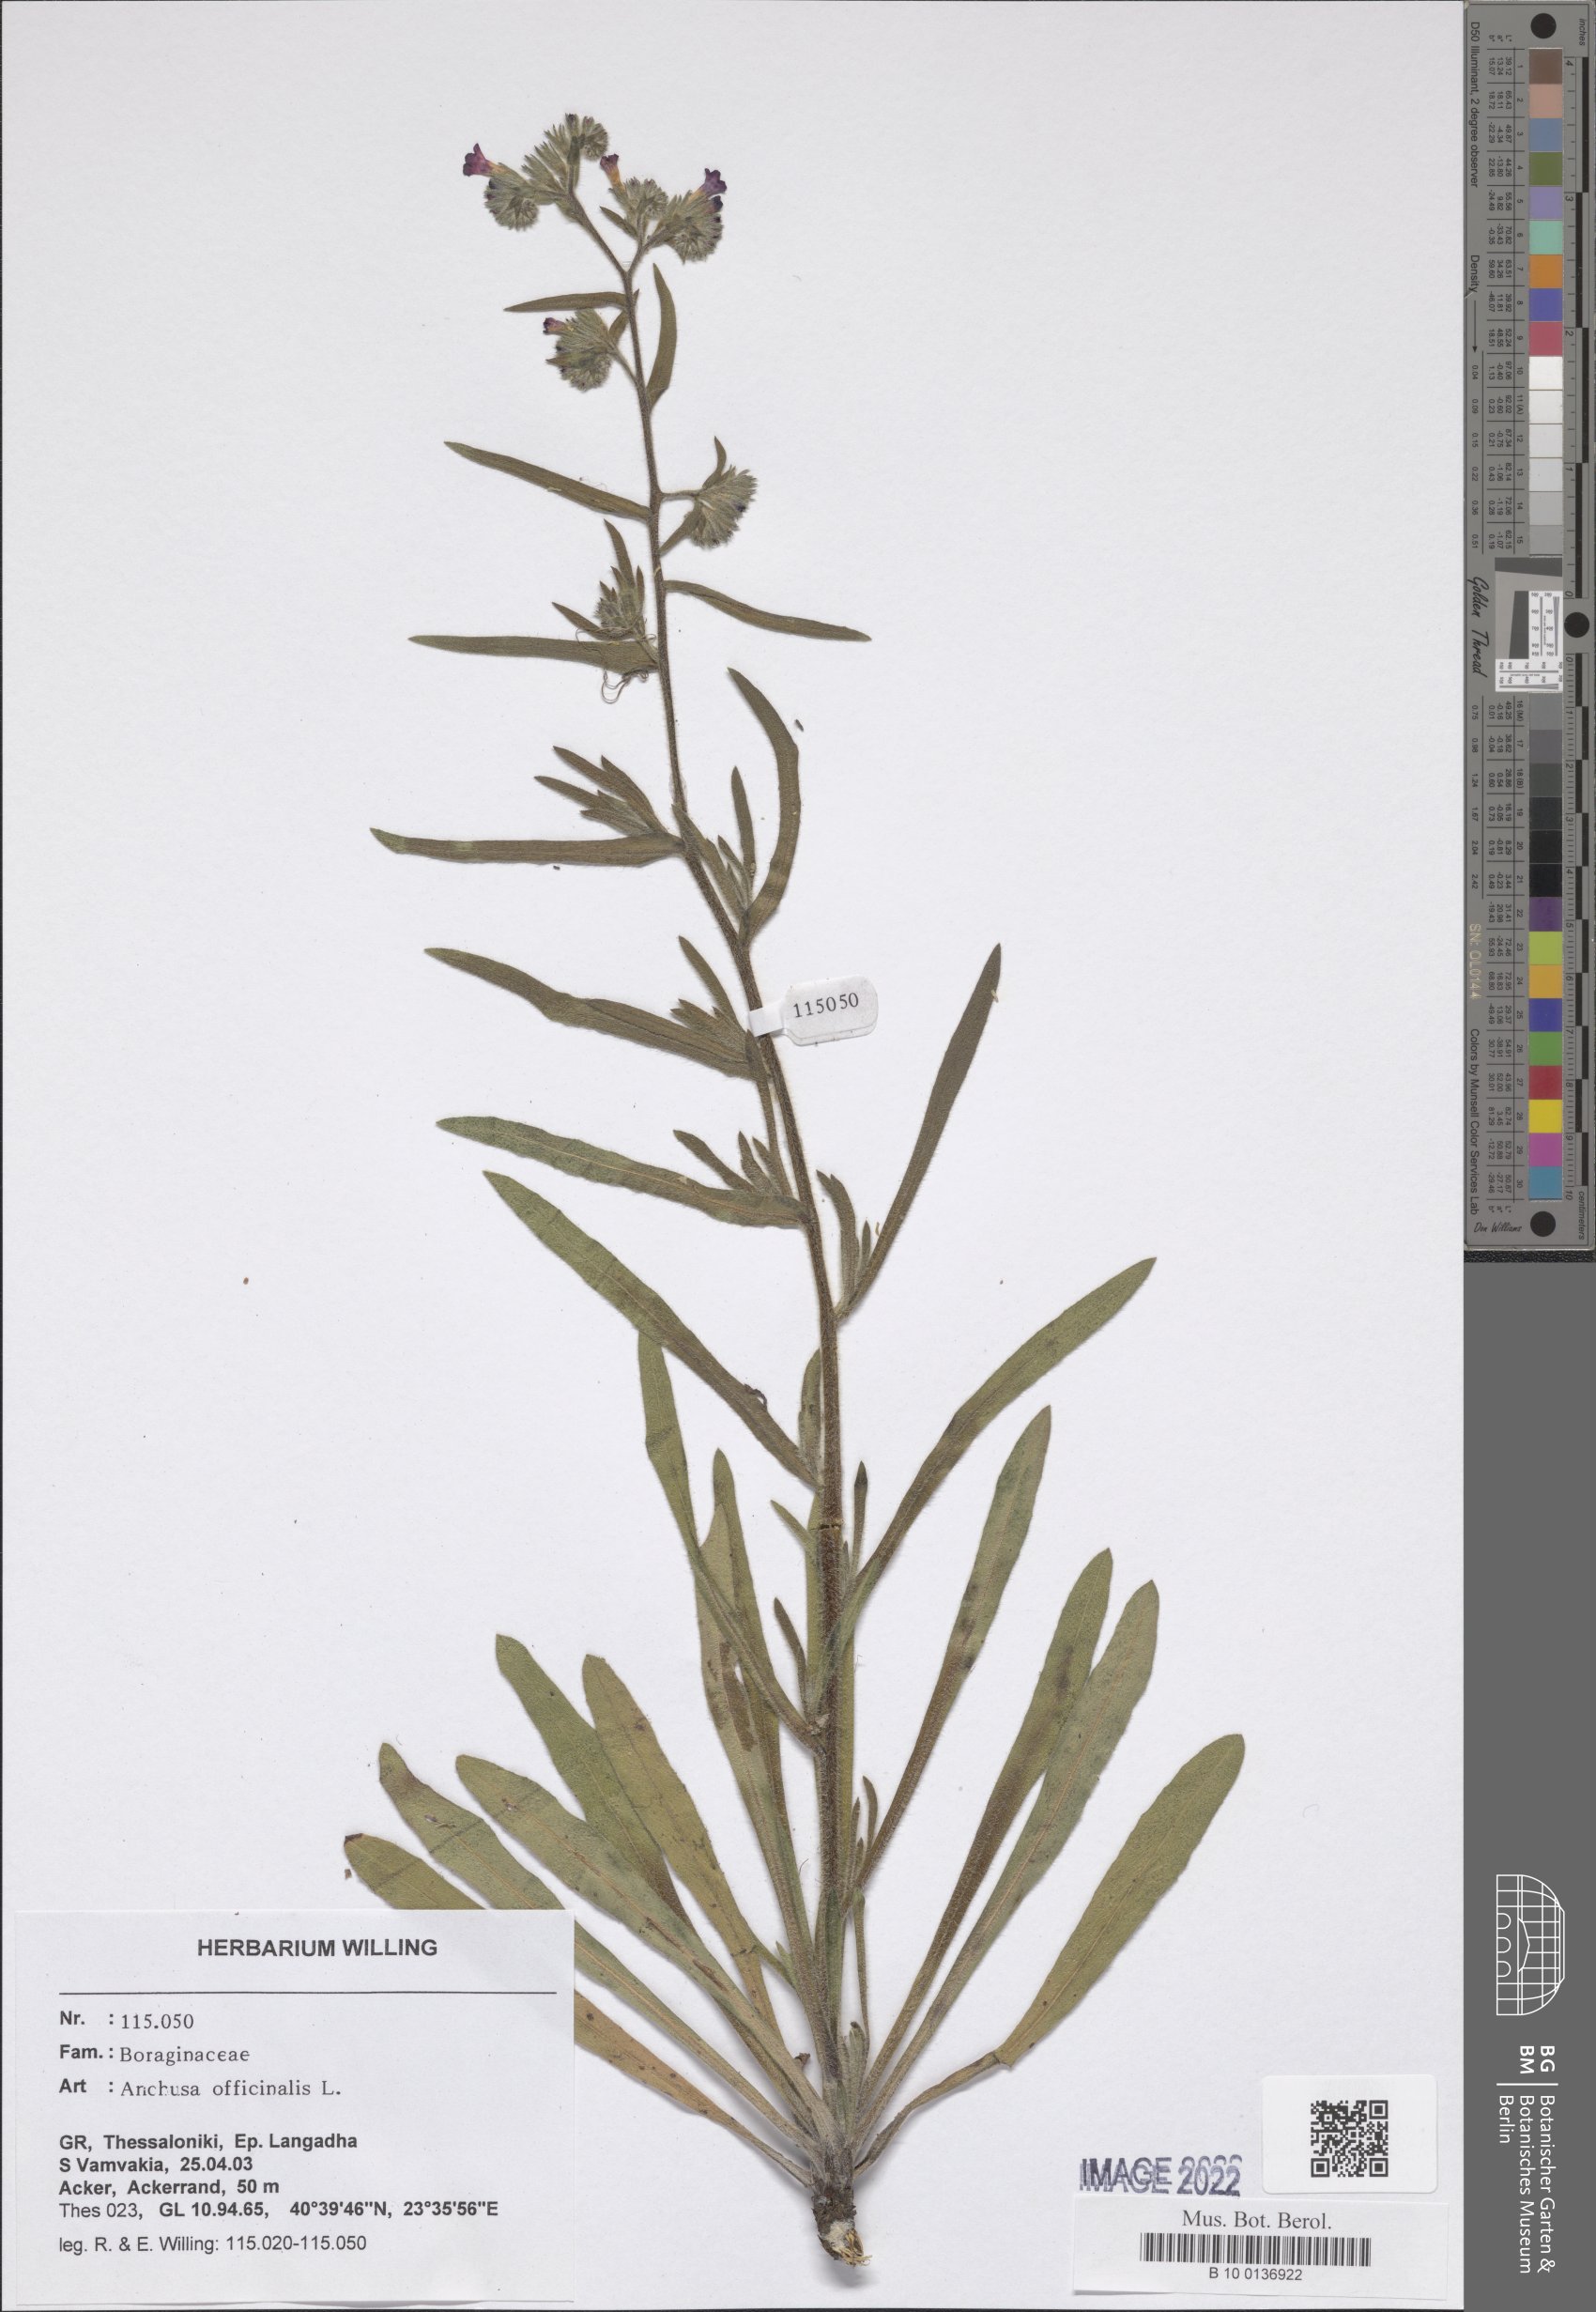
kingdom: Plantae
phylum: Tracheophyta
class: Magnoliopsida
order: Boraginales
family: Boraginaceae
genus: Anchusa
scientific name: Anchusa officinalis
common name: Alkanet
